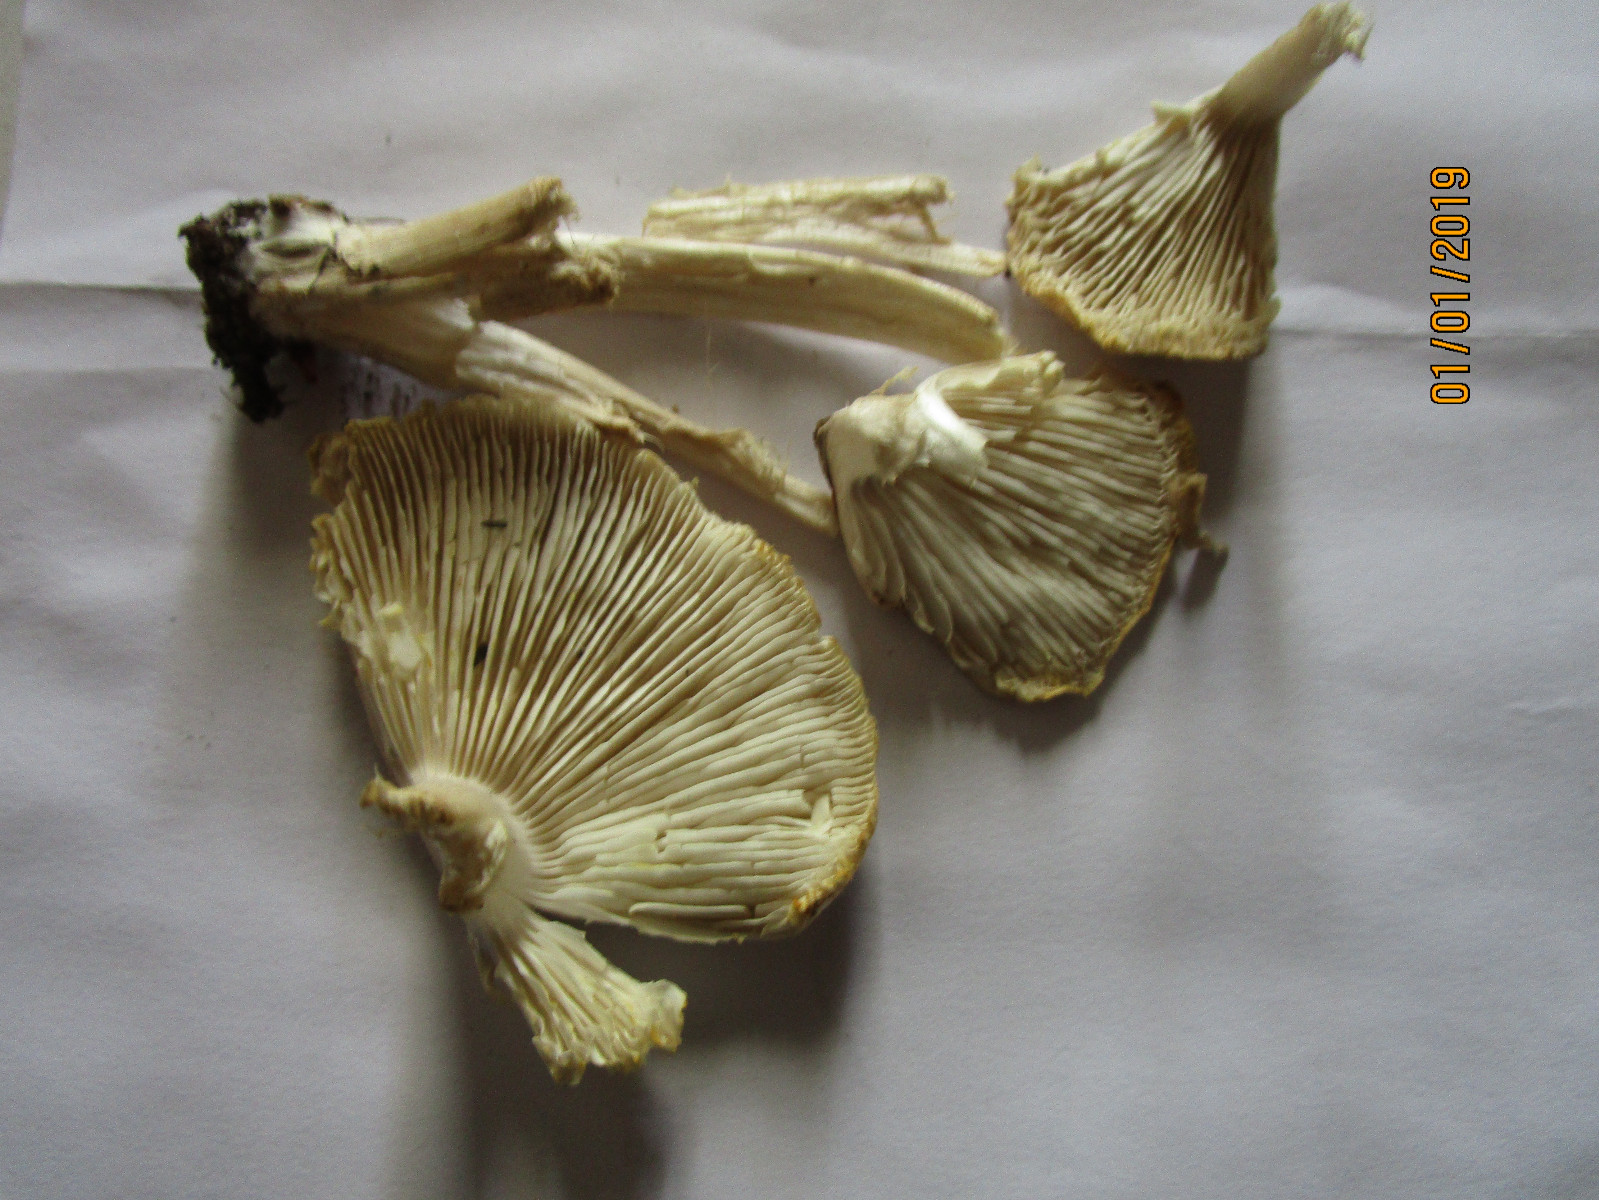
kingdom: Fungi
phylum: Basidiomycota
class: Agaricomycetes
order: Agaricales
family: Tricholomataceae
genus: Tricholoma
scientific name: Tricholoma scalpturatum
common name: gulplettet ridderhat
